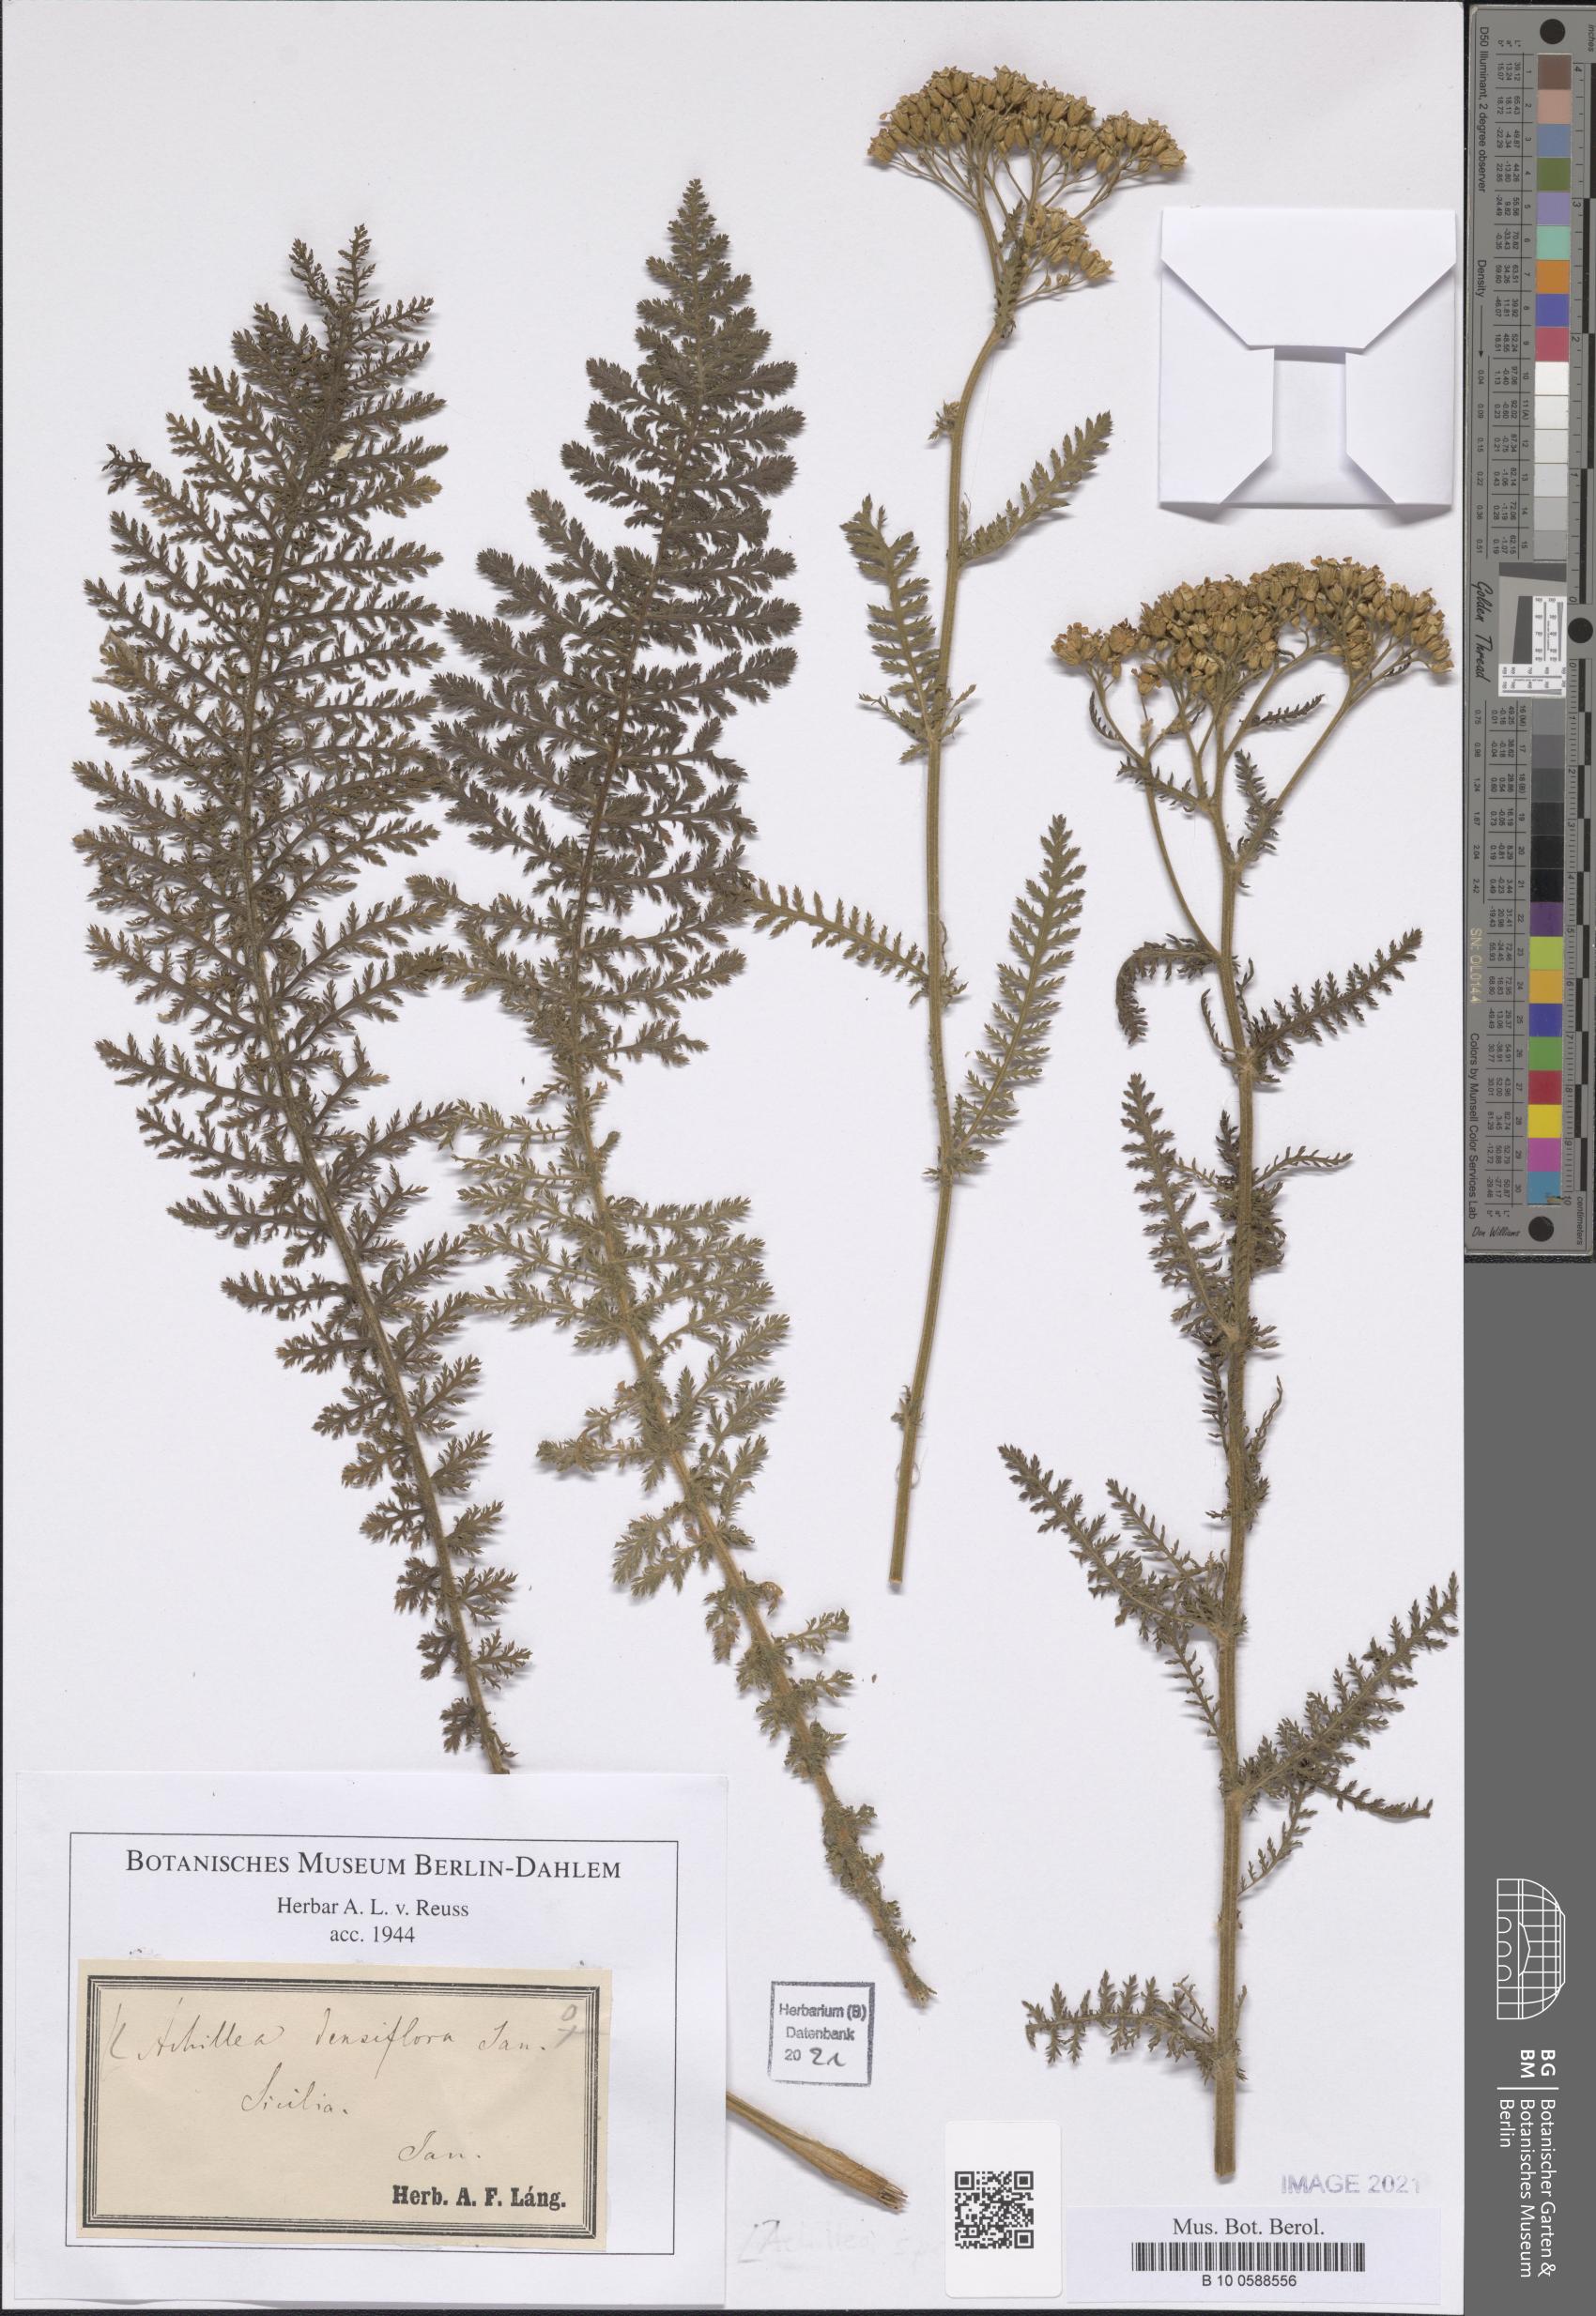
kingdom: Plantae
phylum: Tracheophyta
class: Magnoliopsida
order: Asterales
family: Asteraceae
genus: Achillea
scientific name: Achillea densifolia
